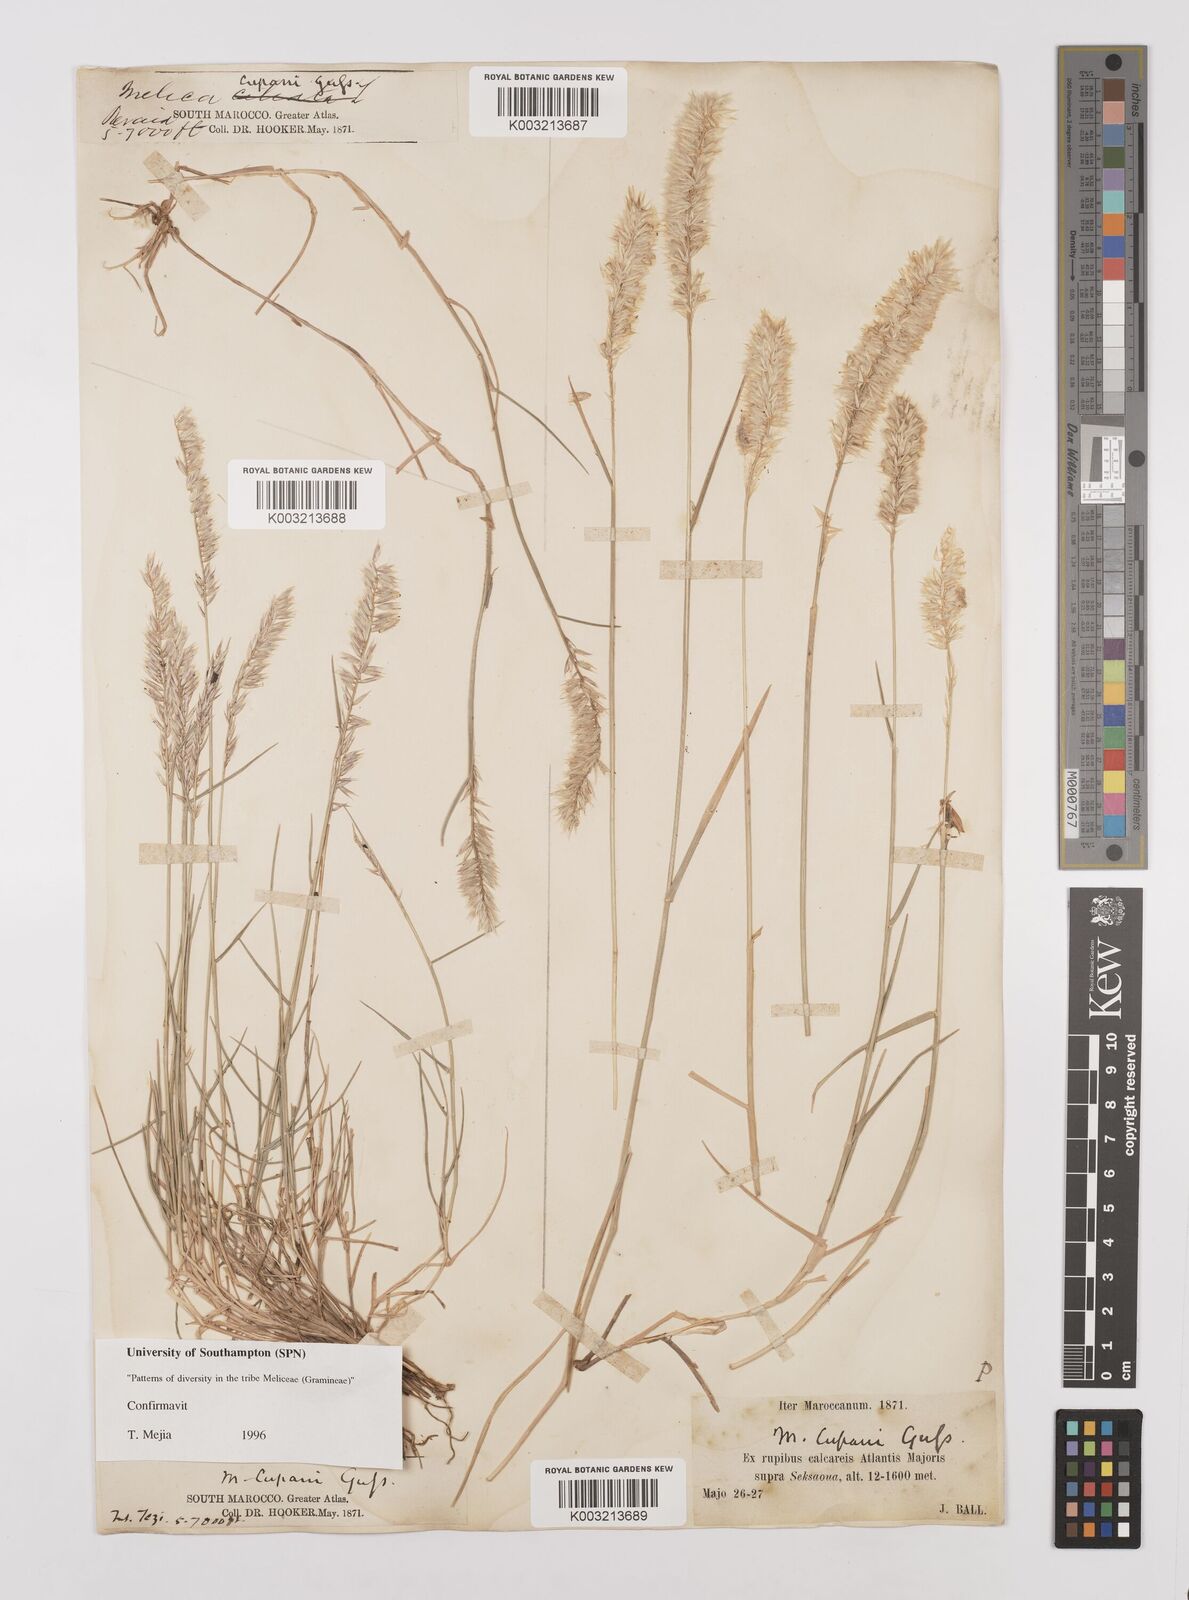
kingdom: Plantae
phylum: Tracheophyta
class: Liliopsida
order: Poales
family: Poaceae
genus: Melica
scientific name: Melica cupani
